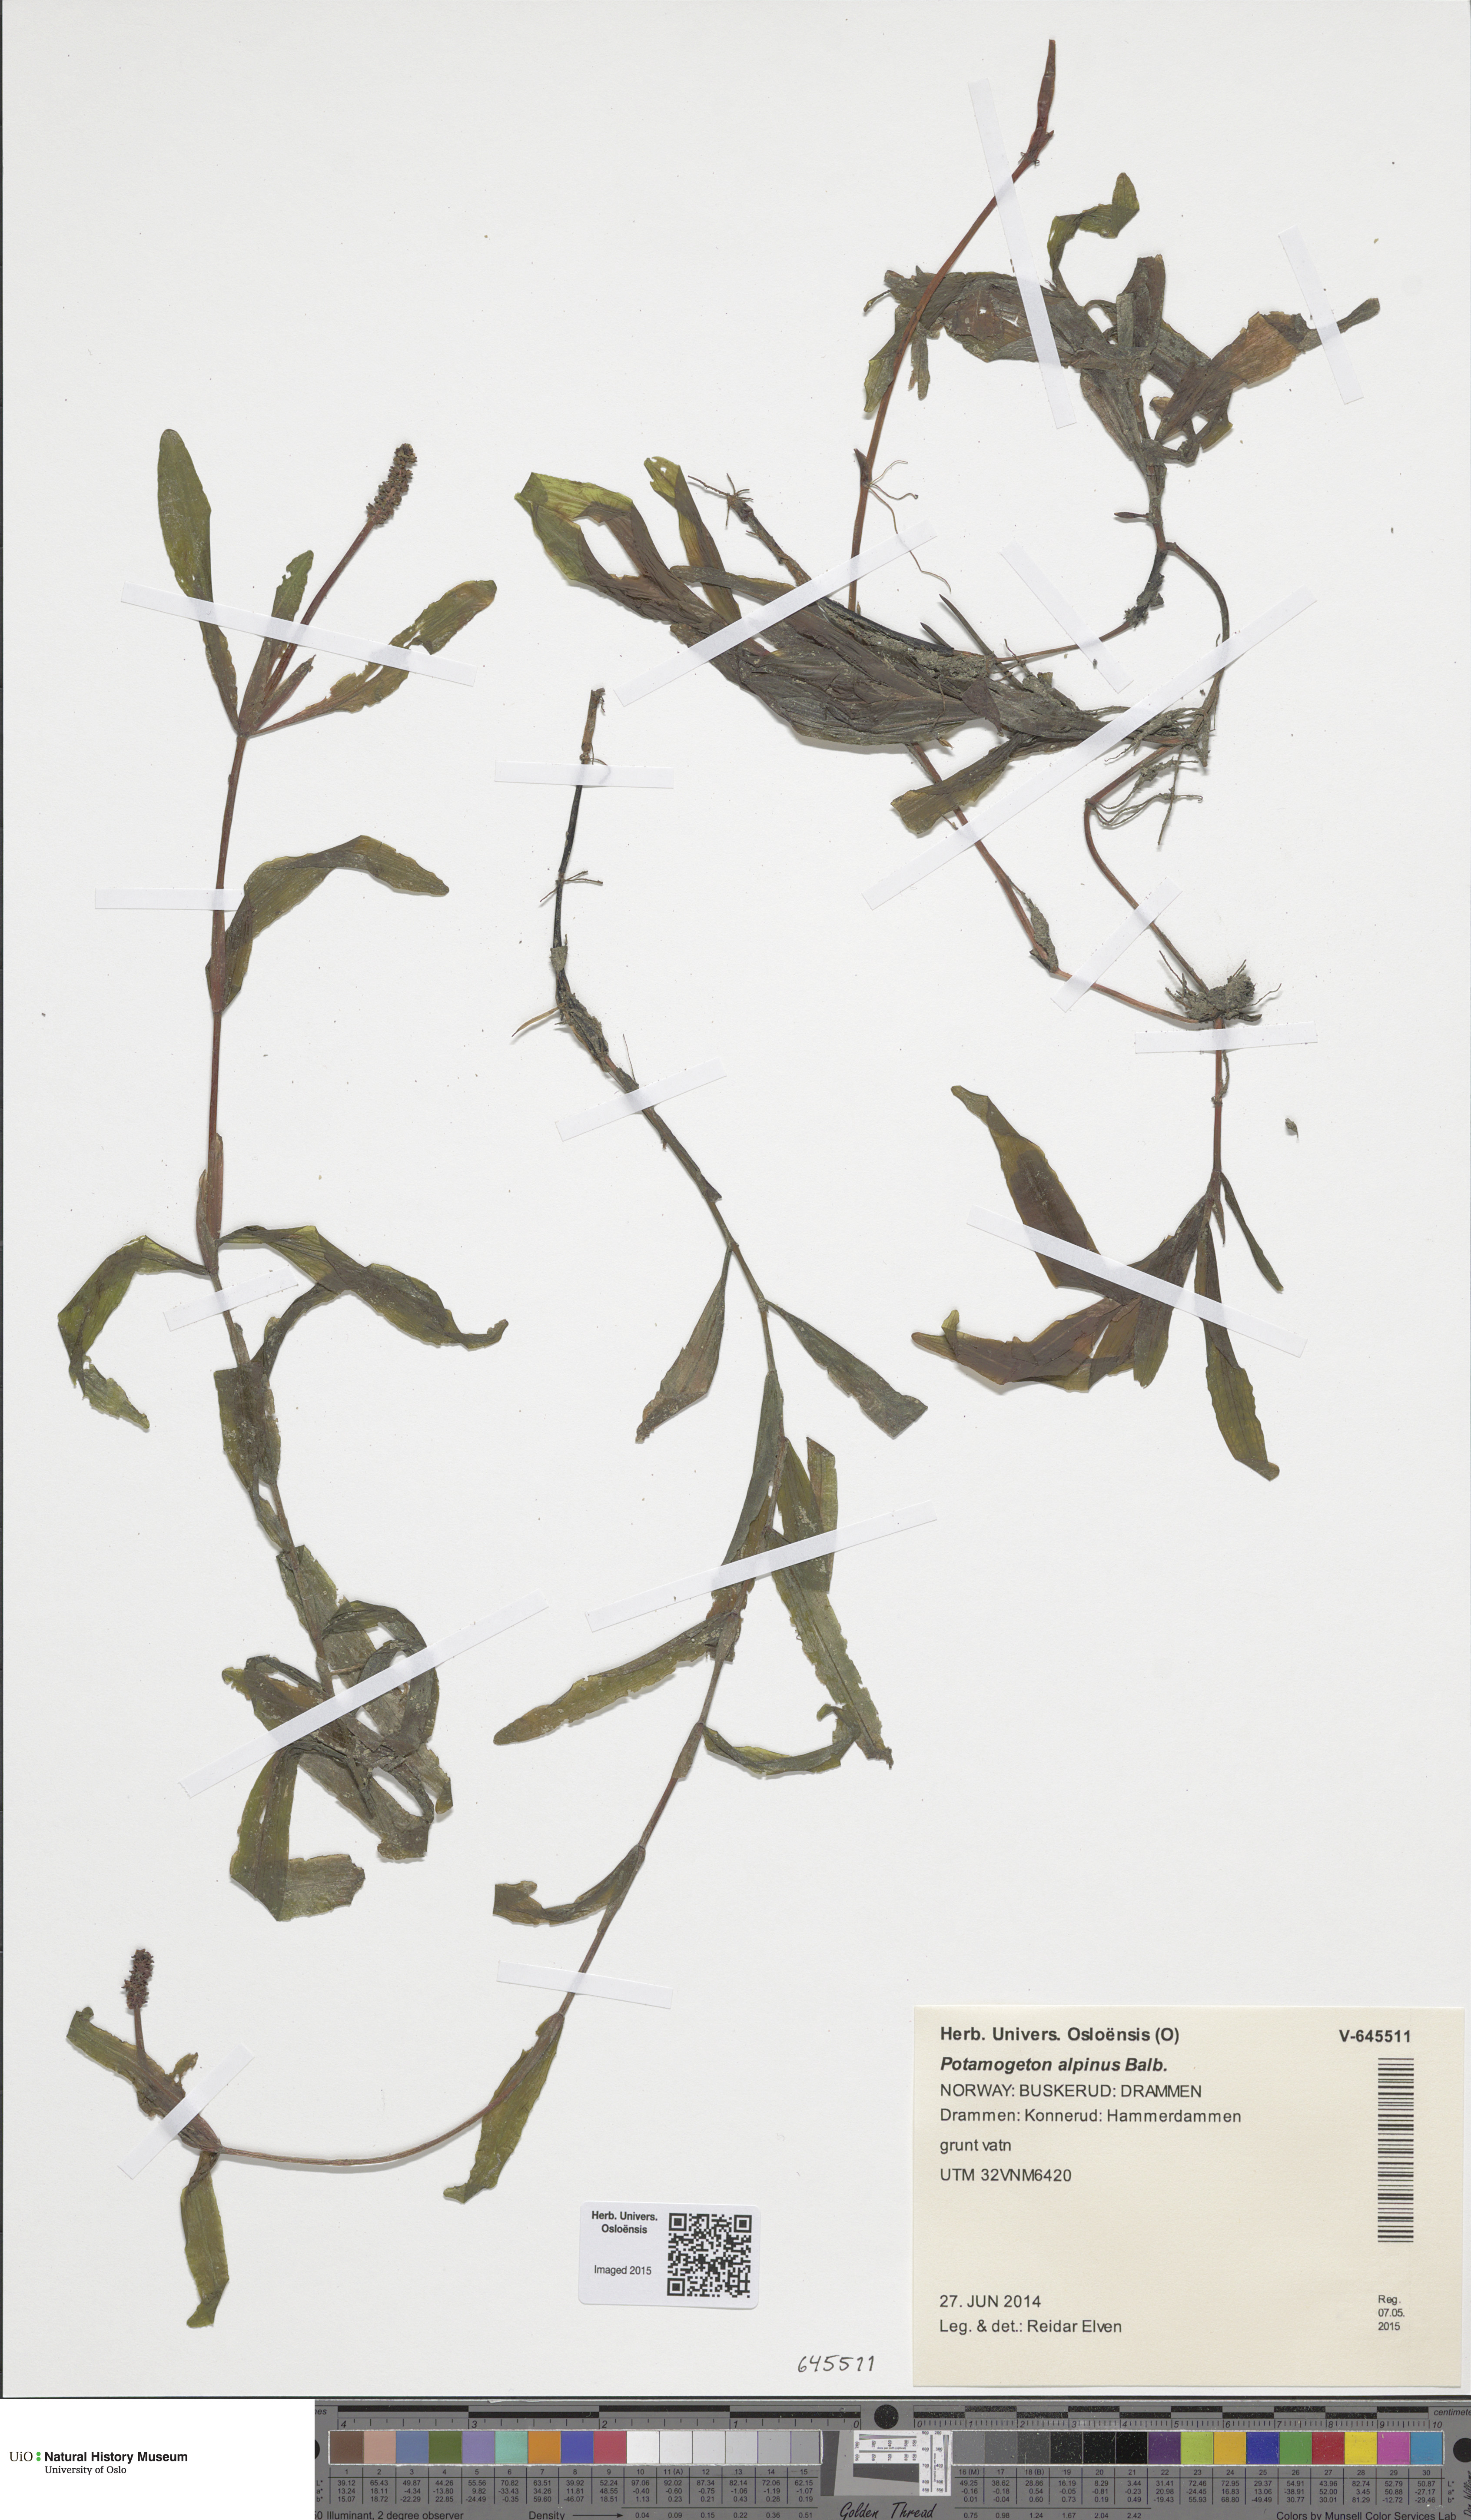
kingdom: Plantae
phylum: Tracheophyta
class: Liliopsida
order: Alismatales
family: Potamogetonaceae
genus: Potamogeton
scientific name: Potamogeton alpinus
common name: Red pondweed
